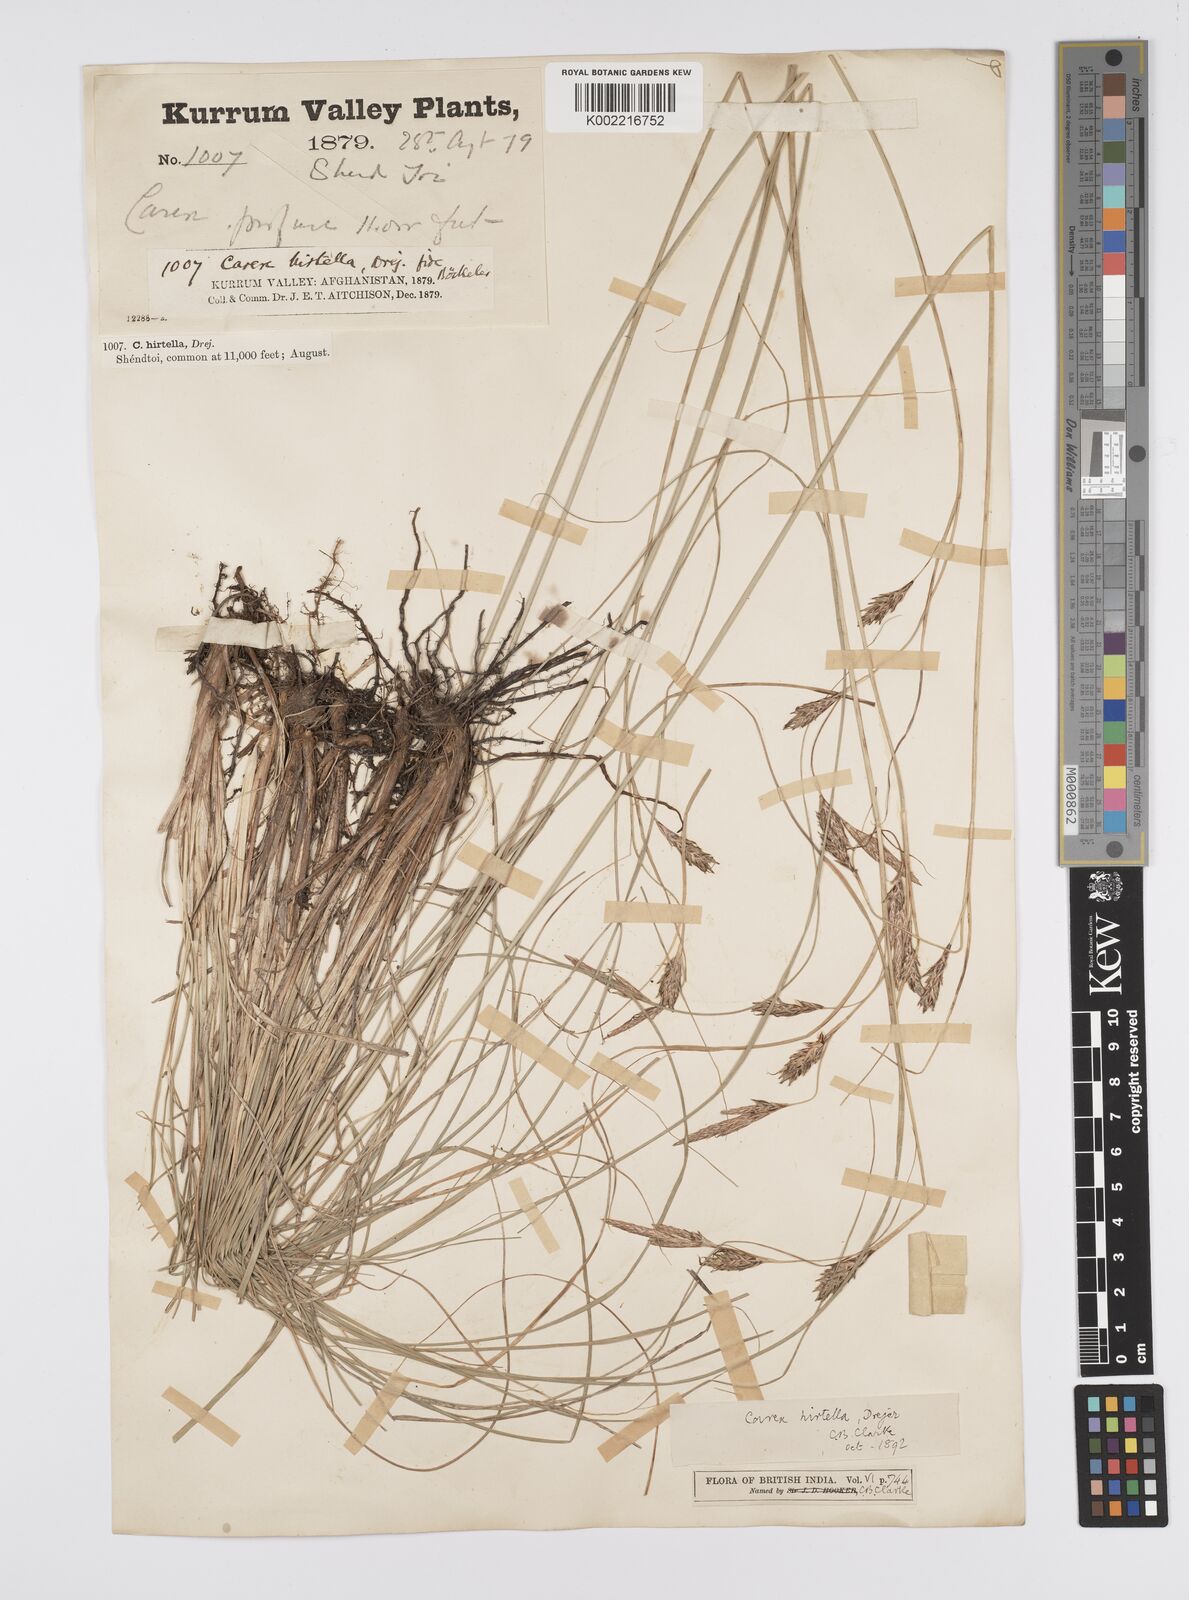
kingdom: Plantae
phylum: Tracheophyta
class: Liliopsida
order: Poales
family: Cyperaceae
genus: Carex
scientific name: Carex plectobasis
